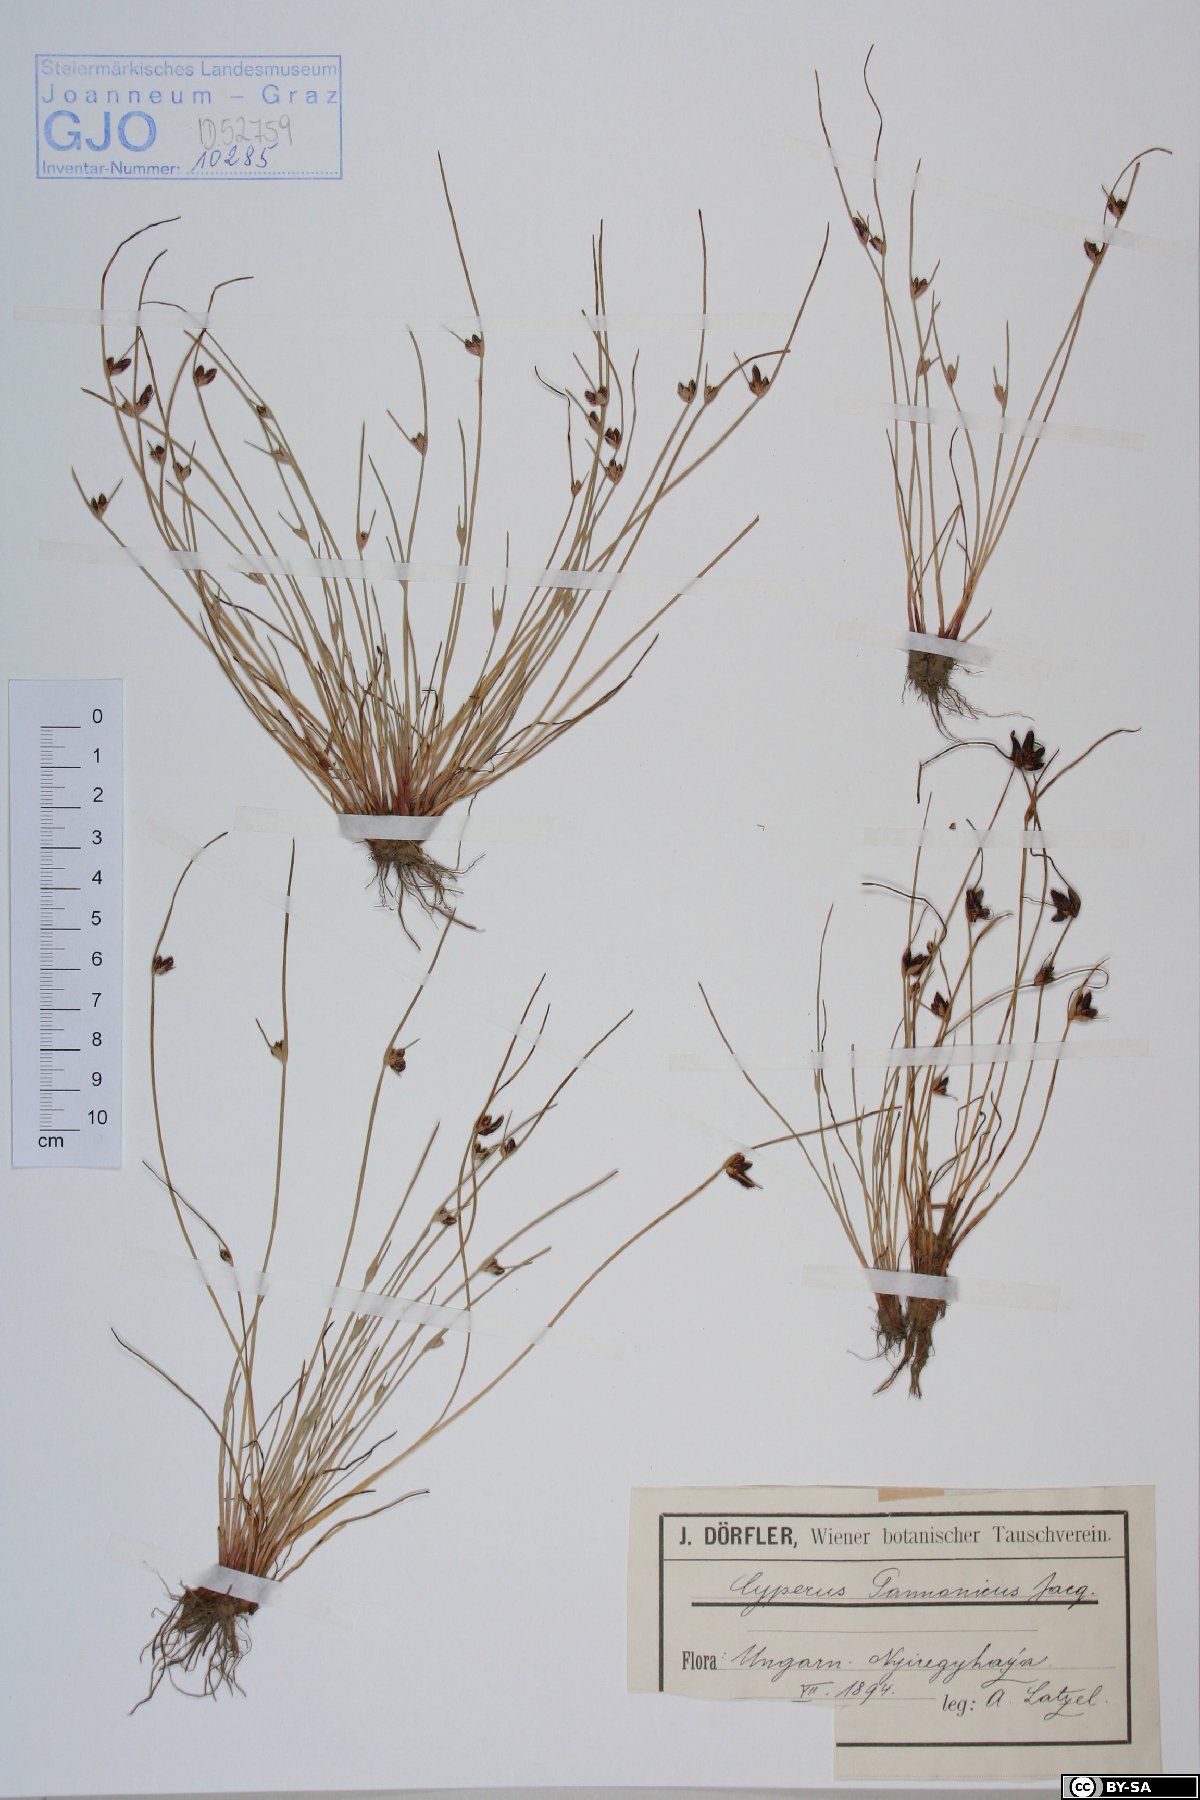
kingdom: Plantae
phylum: Tracheophyta
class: Liliopsida
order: Poales
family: Cyperaceae
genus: Cyperus
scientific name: Cyperus pannonicus
